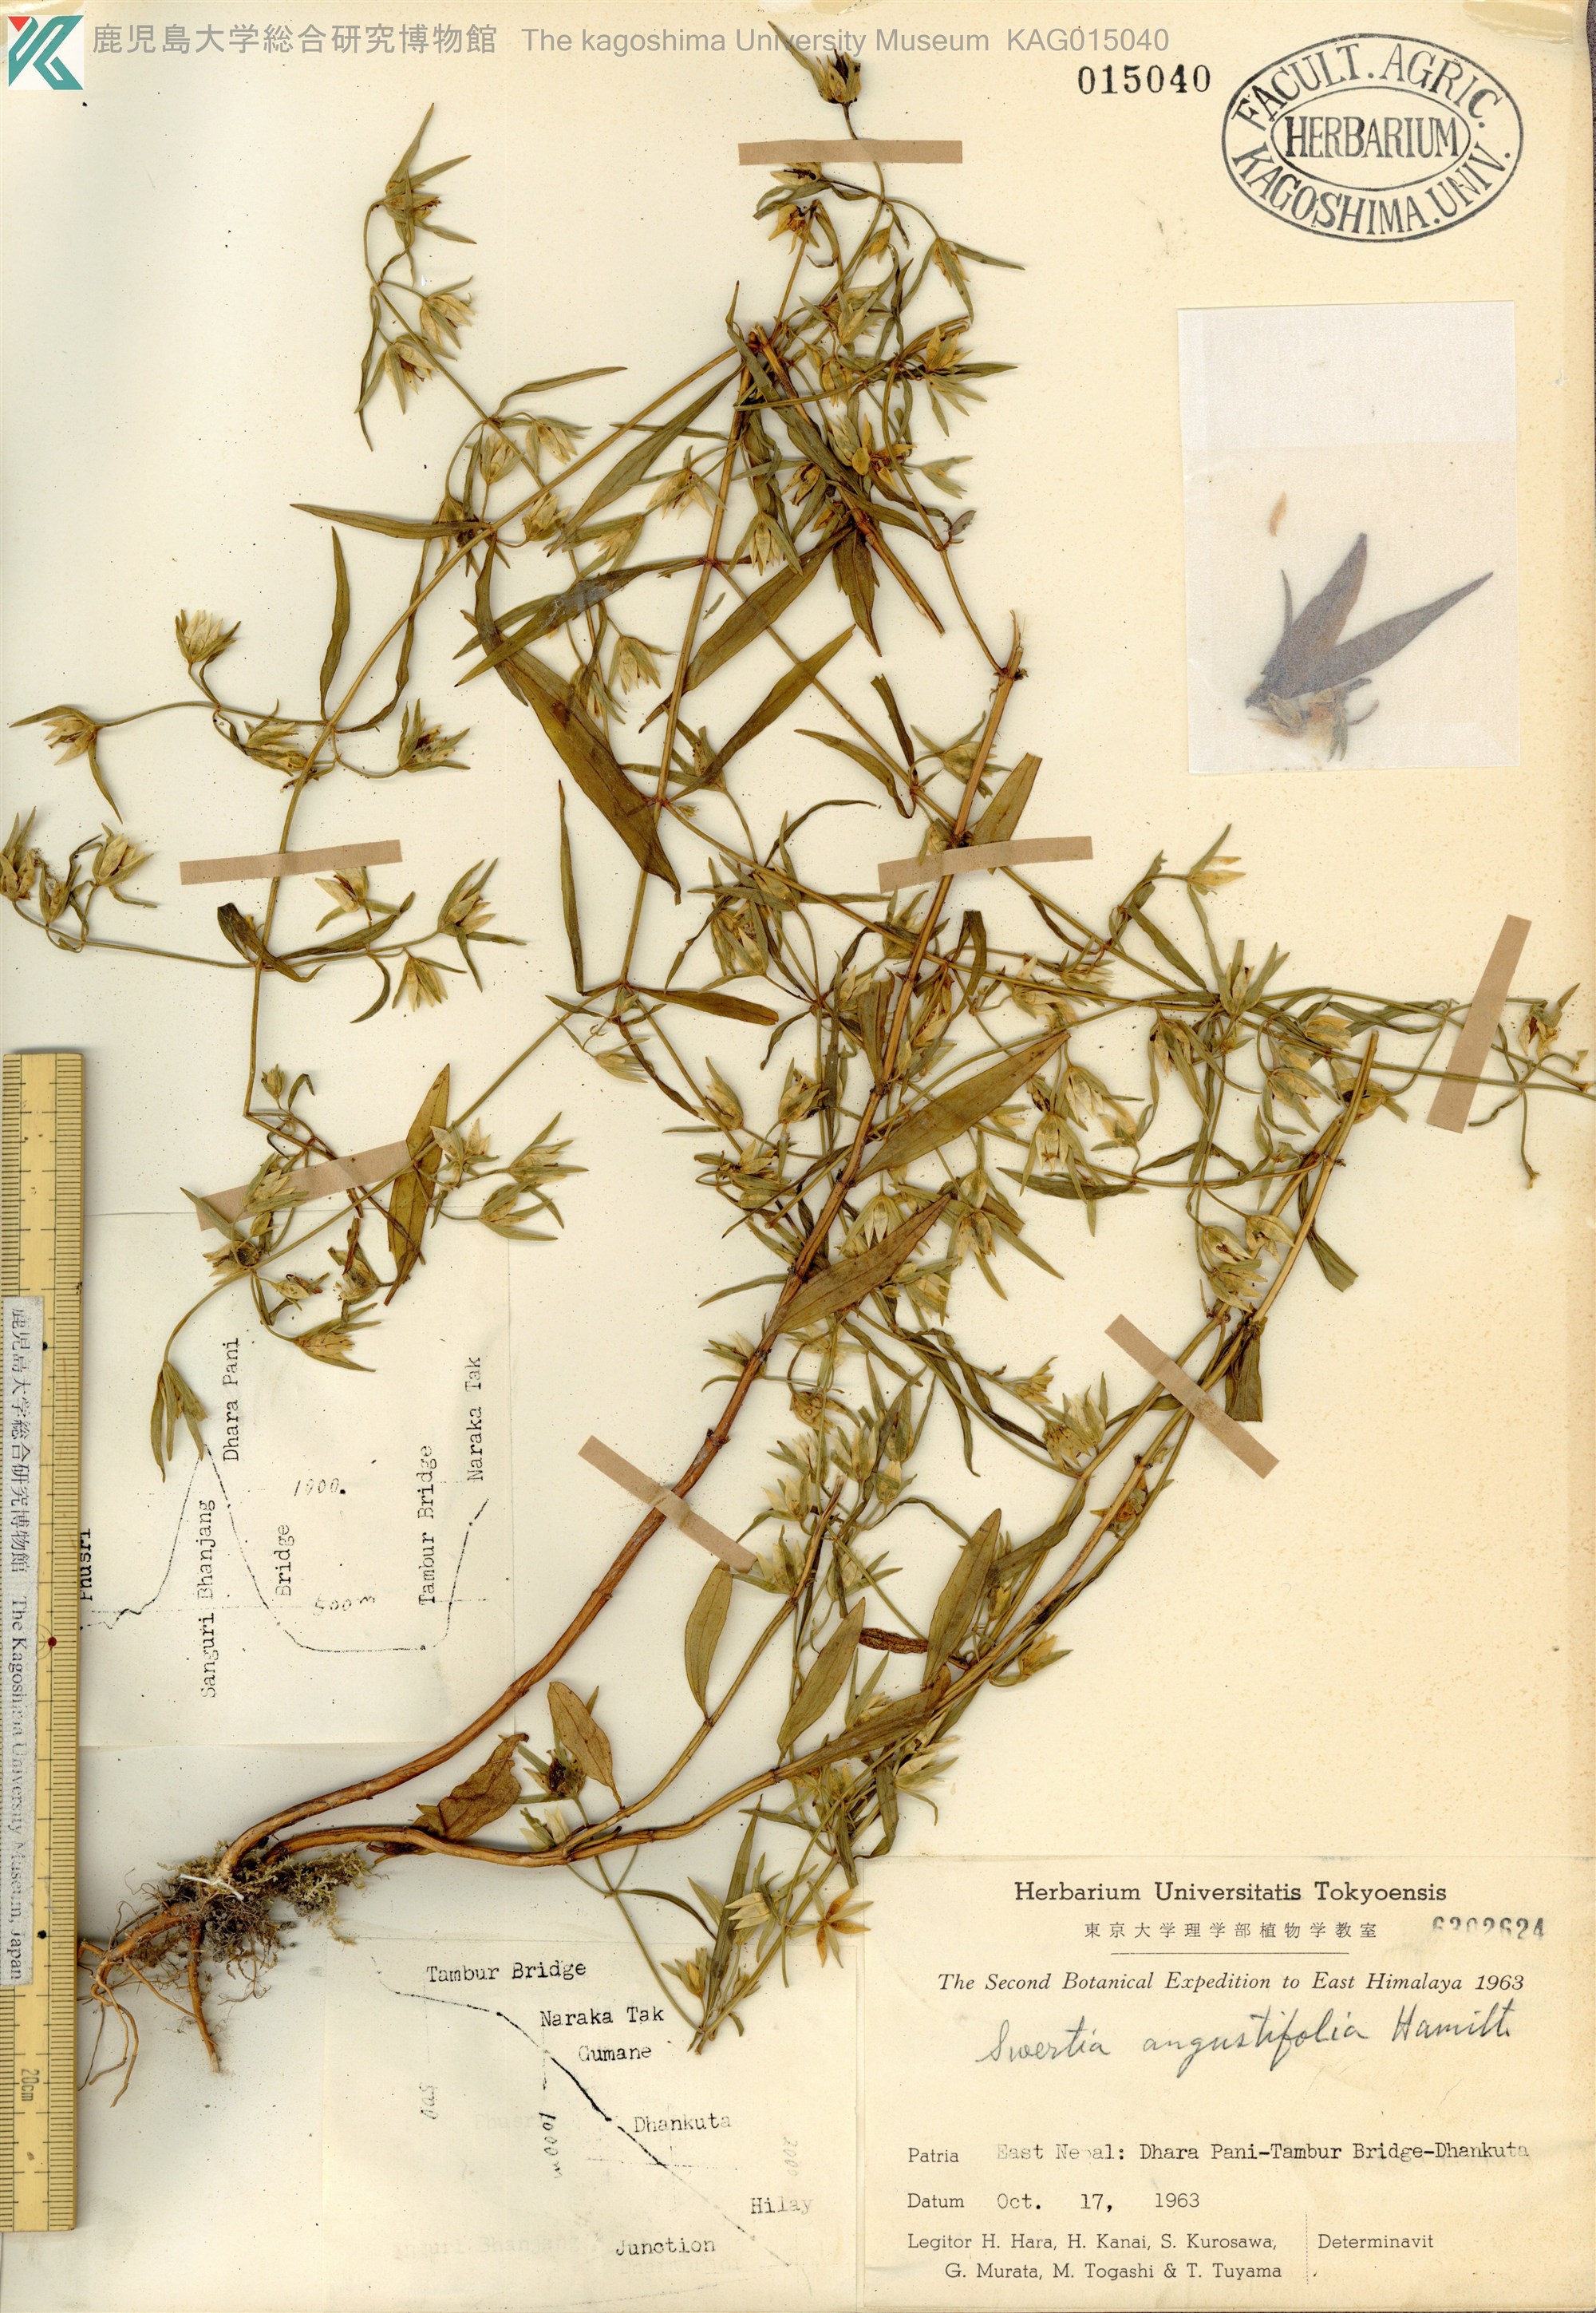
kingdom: Plantae
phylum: Tracheophyta
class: Magnoliopsida
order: Gentianales
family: Gentianaceae
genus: Swertia
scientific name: Swertia angustifolia
